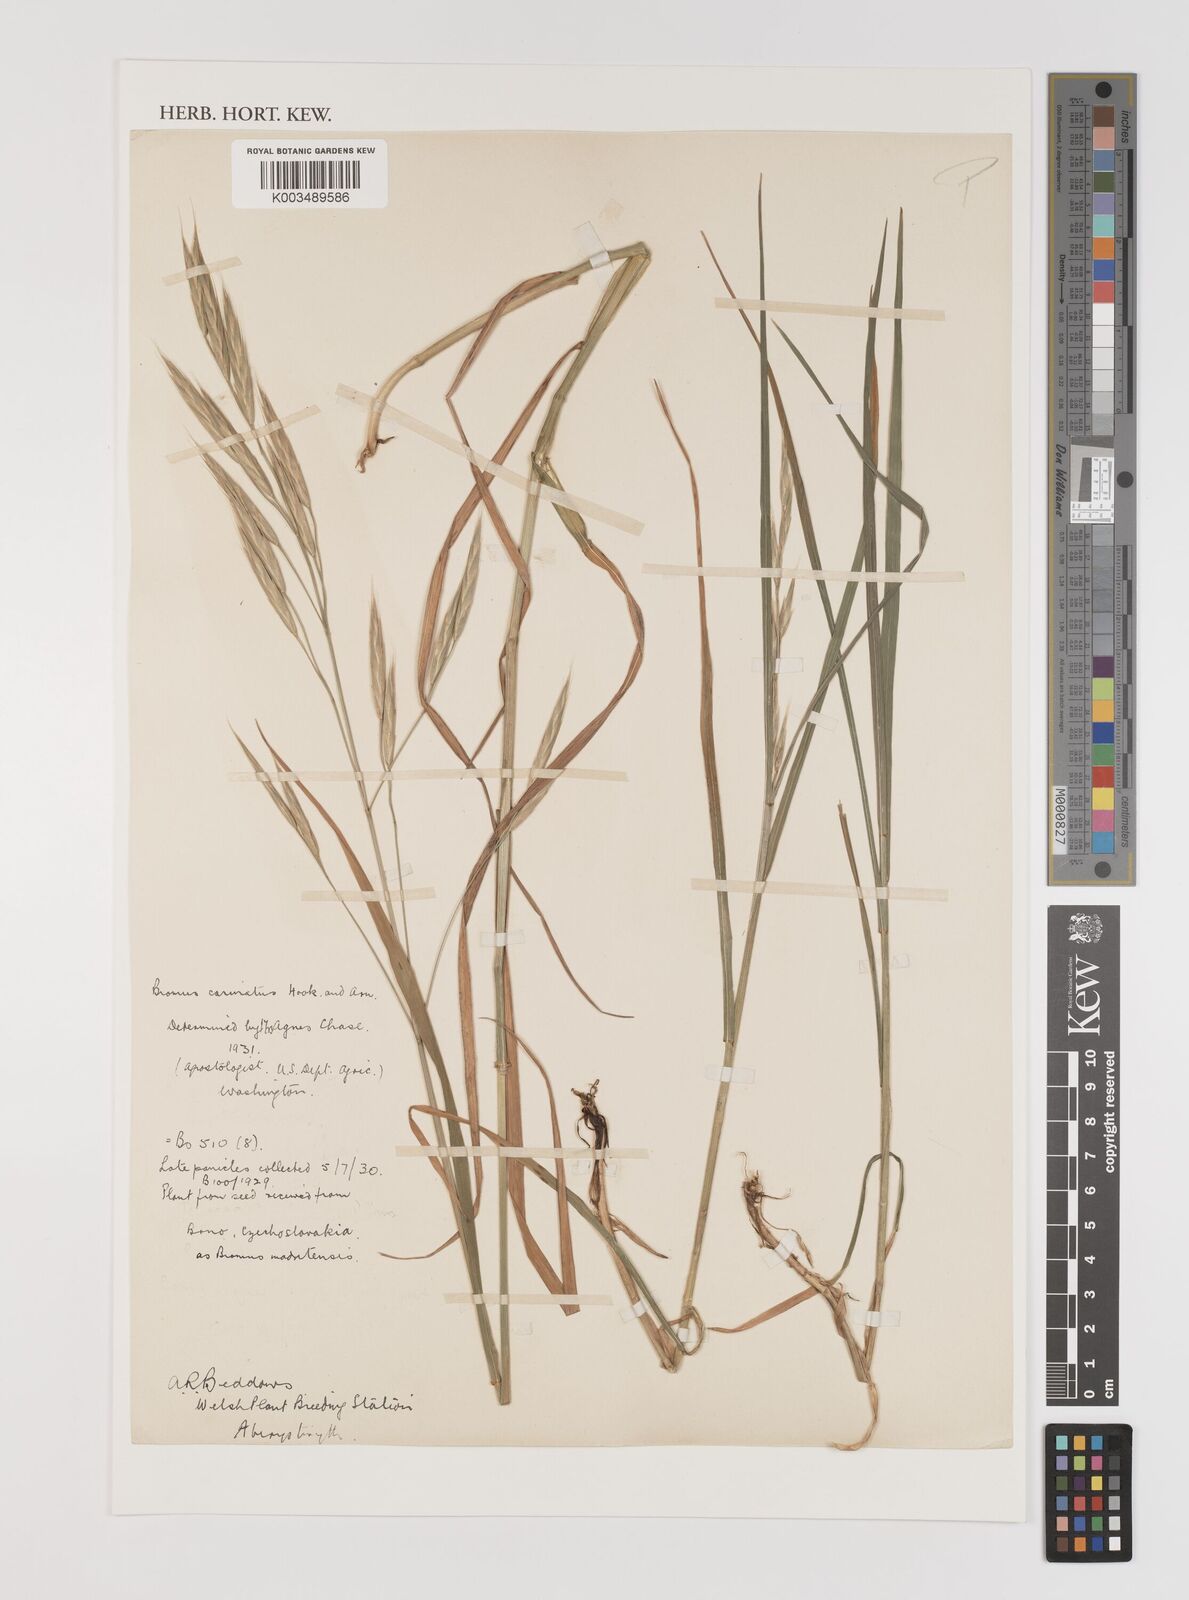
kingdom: Plantae
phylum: Tracheophyta
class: Liliopsida
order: Poales
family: Poaceae
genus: Bromus
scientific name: Bromus carinatus
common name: Mountain brome
